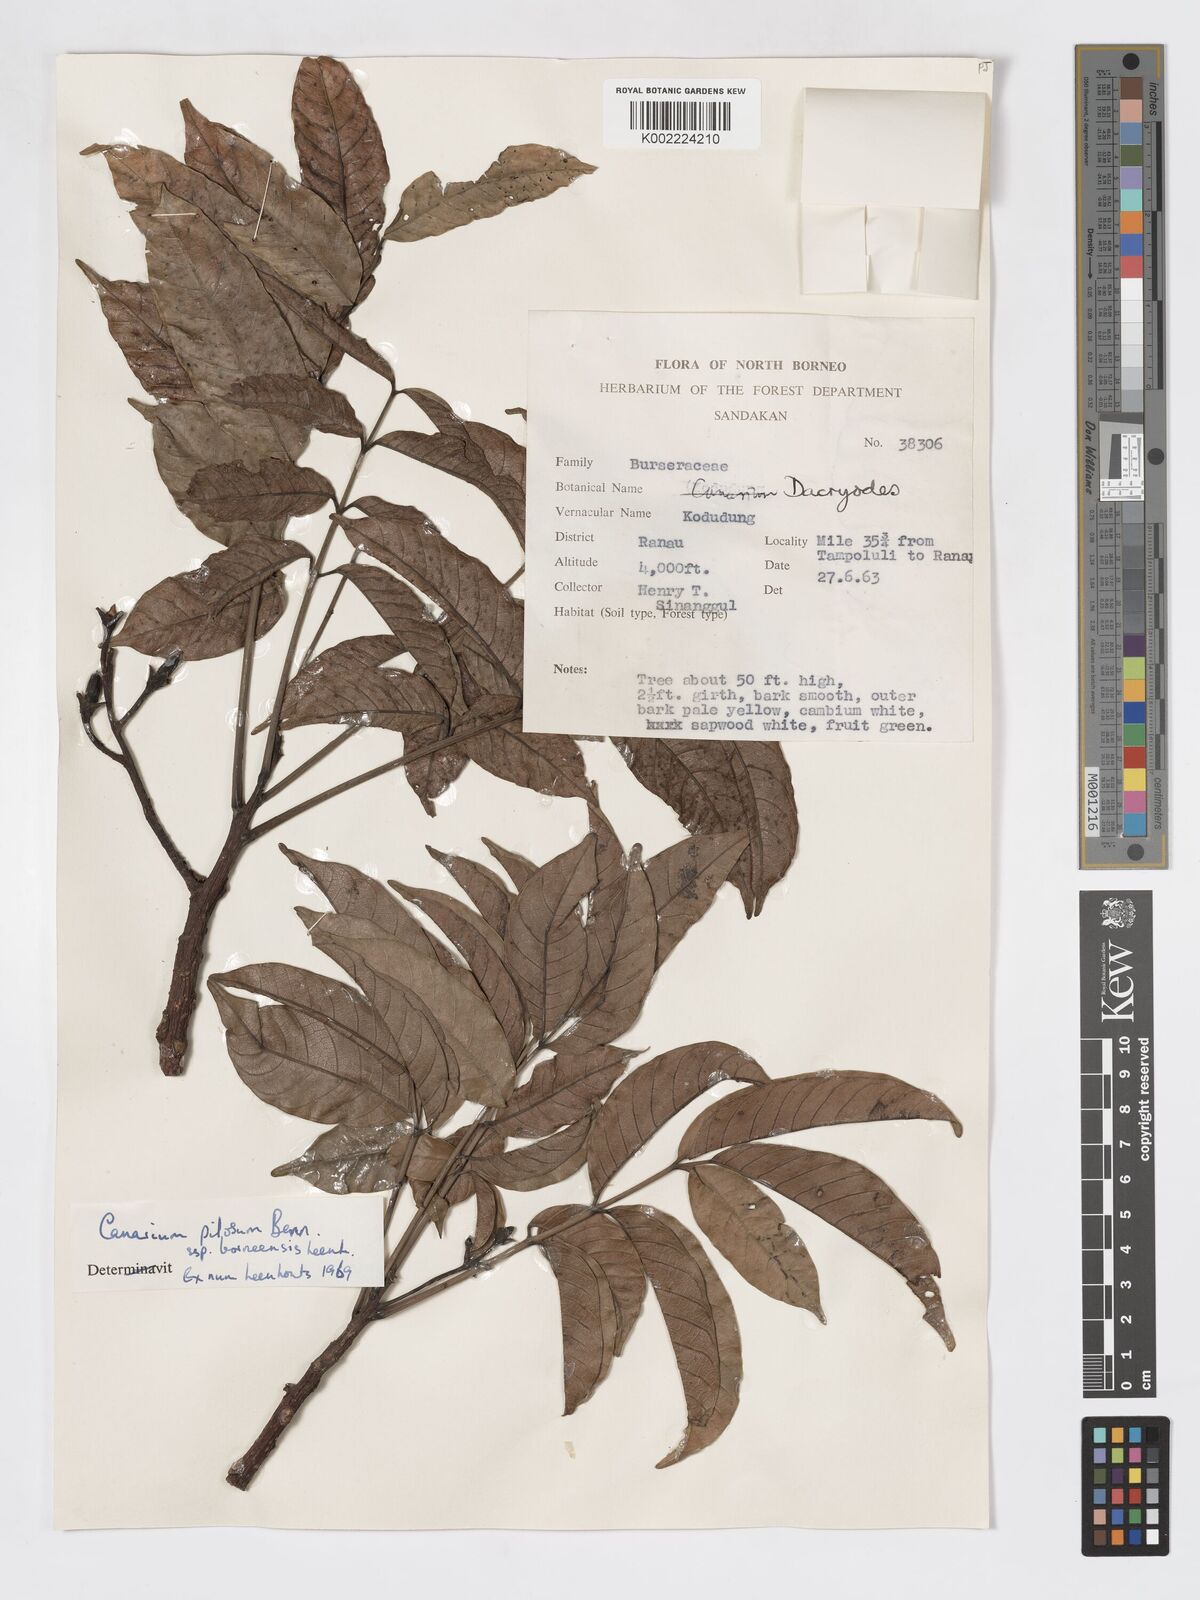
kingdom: Plantae
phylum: Tracheophyta
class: Magnoliopsida
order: Sapindales
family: Burseraceae
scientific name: Burseraceae
